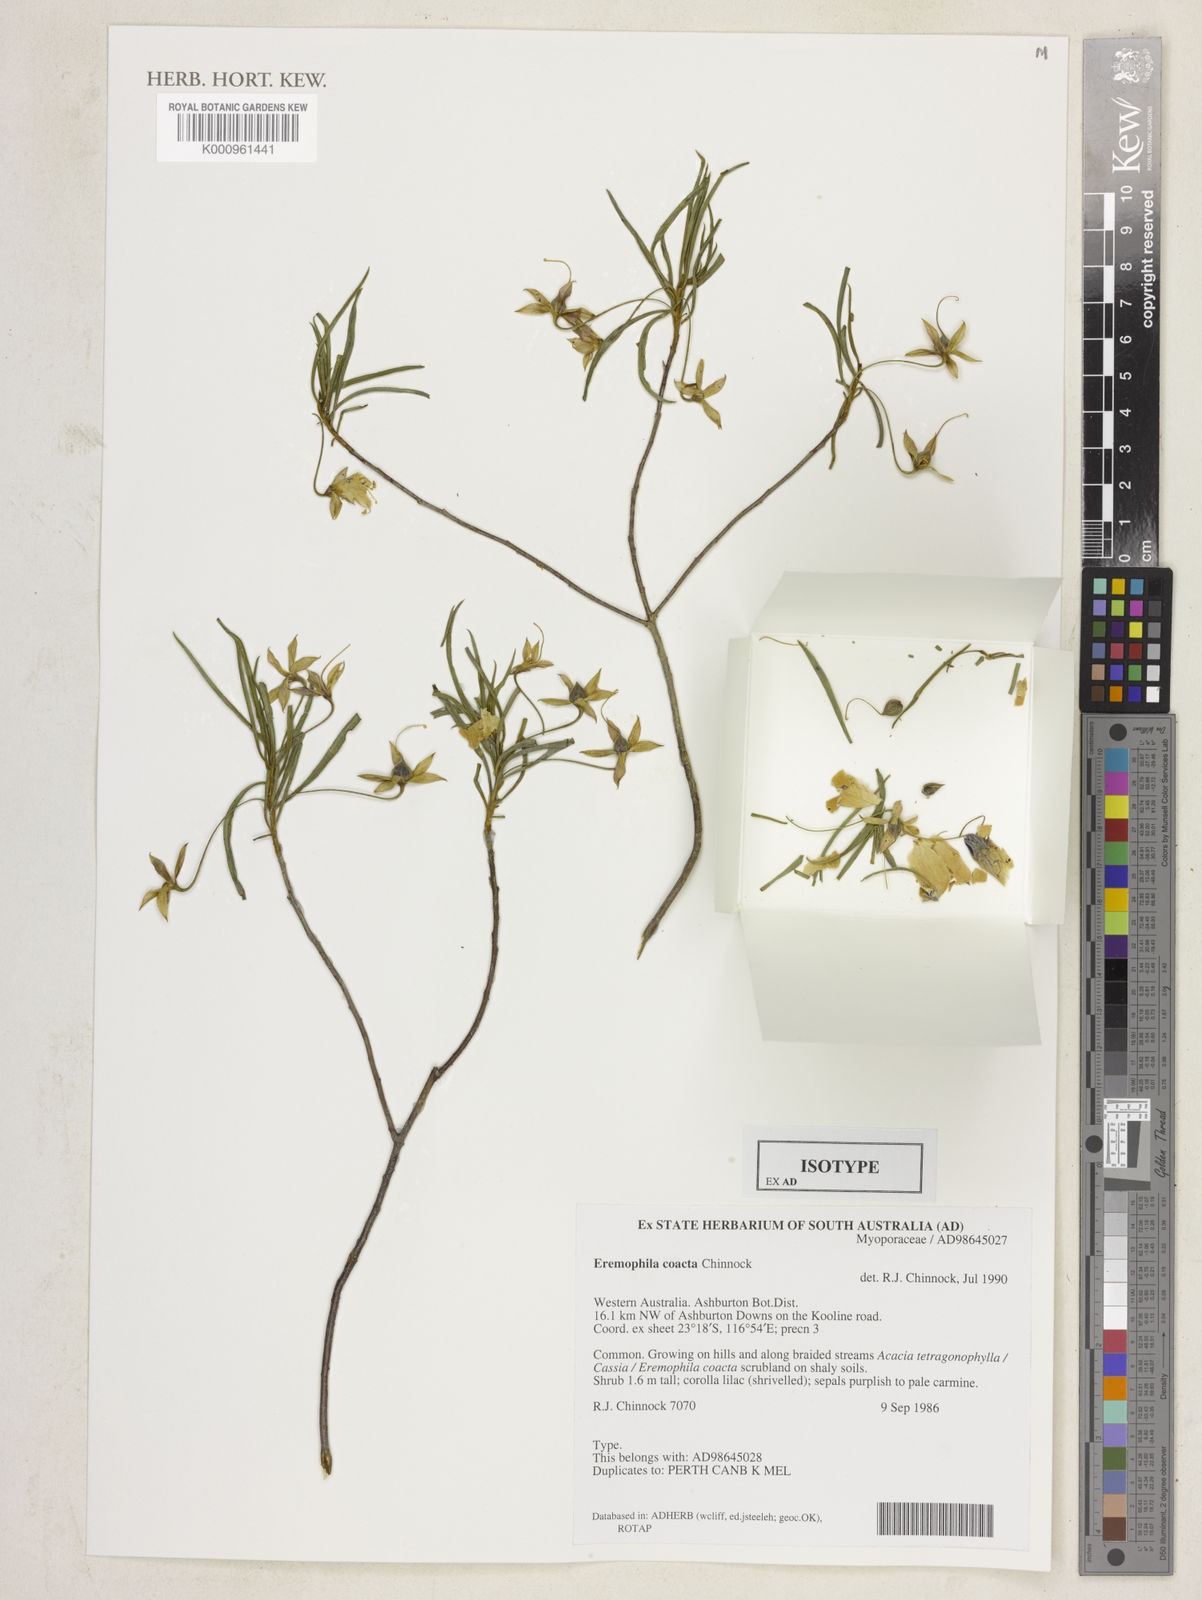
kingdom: Plantae
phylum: Tracheophyta
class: Magnoliopsida
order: Lamiales
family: Scrophulariaceae
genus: Eremophila
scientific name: Eremophila coacta
